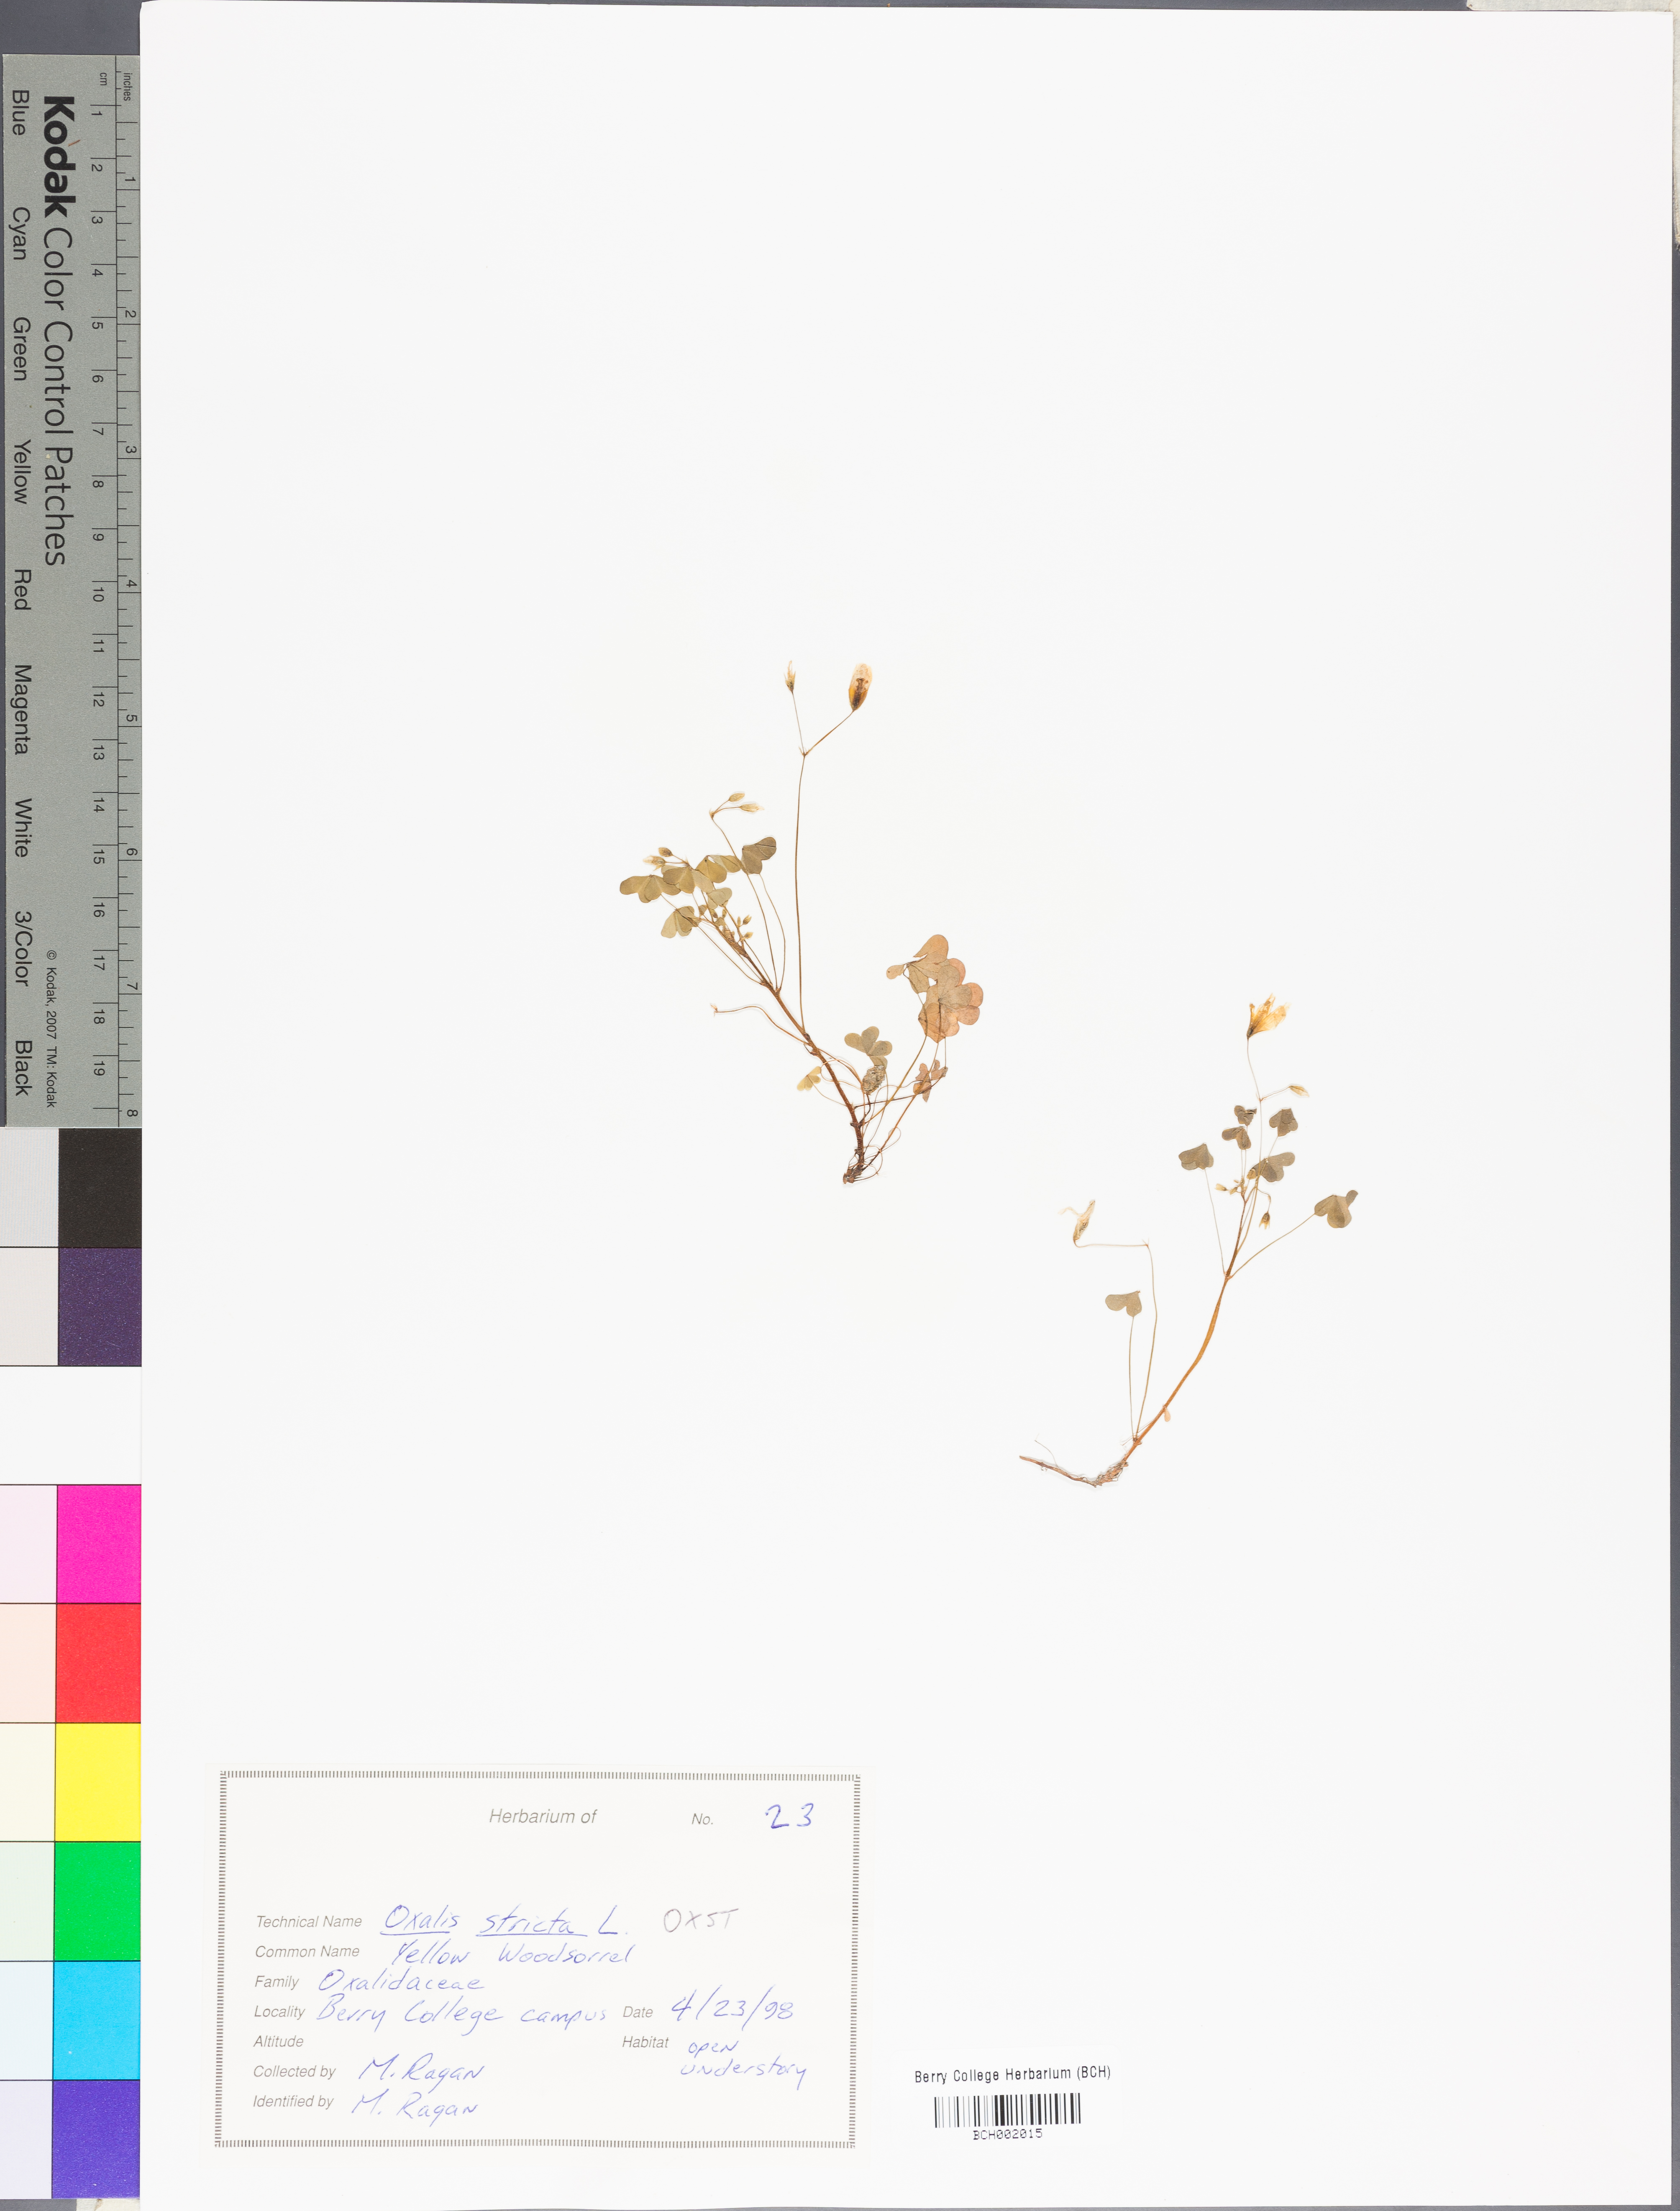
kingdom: Plantae
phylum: Tracheophyta
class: Magnoliopsida
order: Oxalidales
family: Oxalidaceae
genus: Oxalis
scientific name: Oxalis stricta
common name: Upright yellow-sorrel
